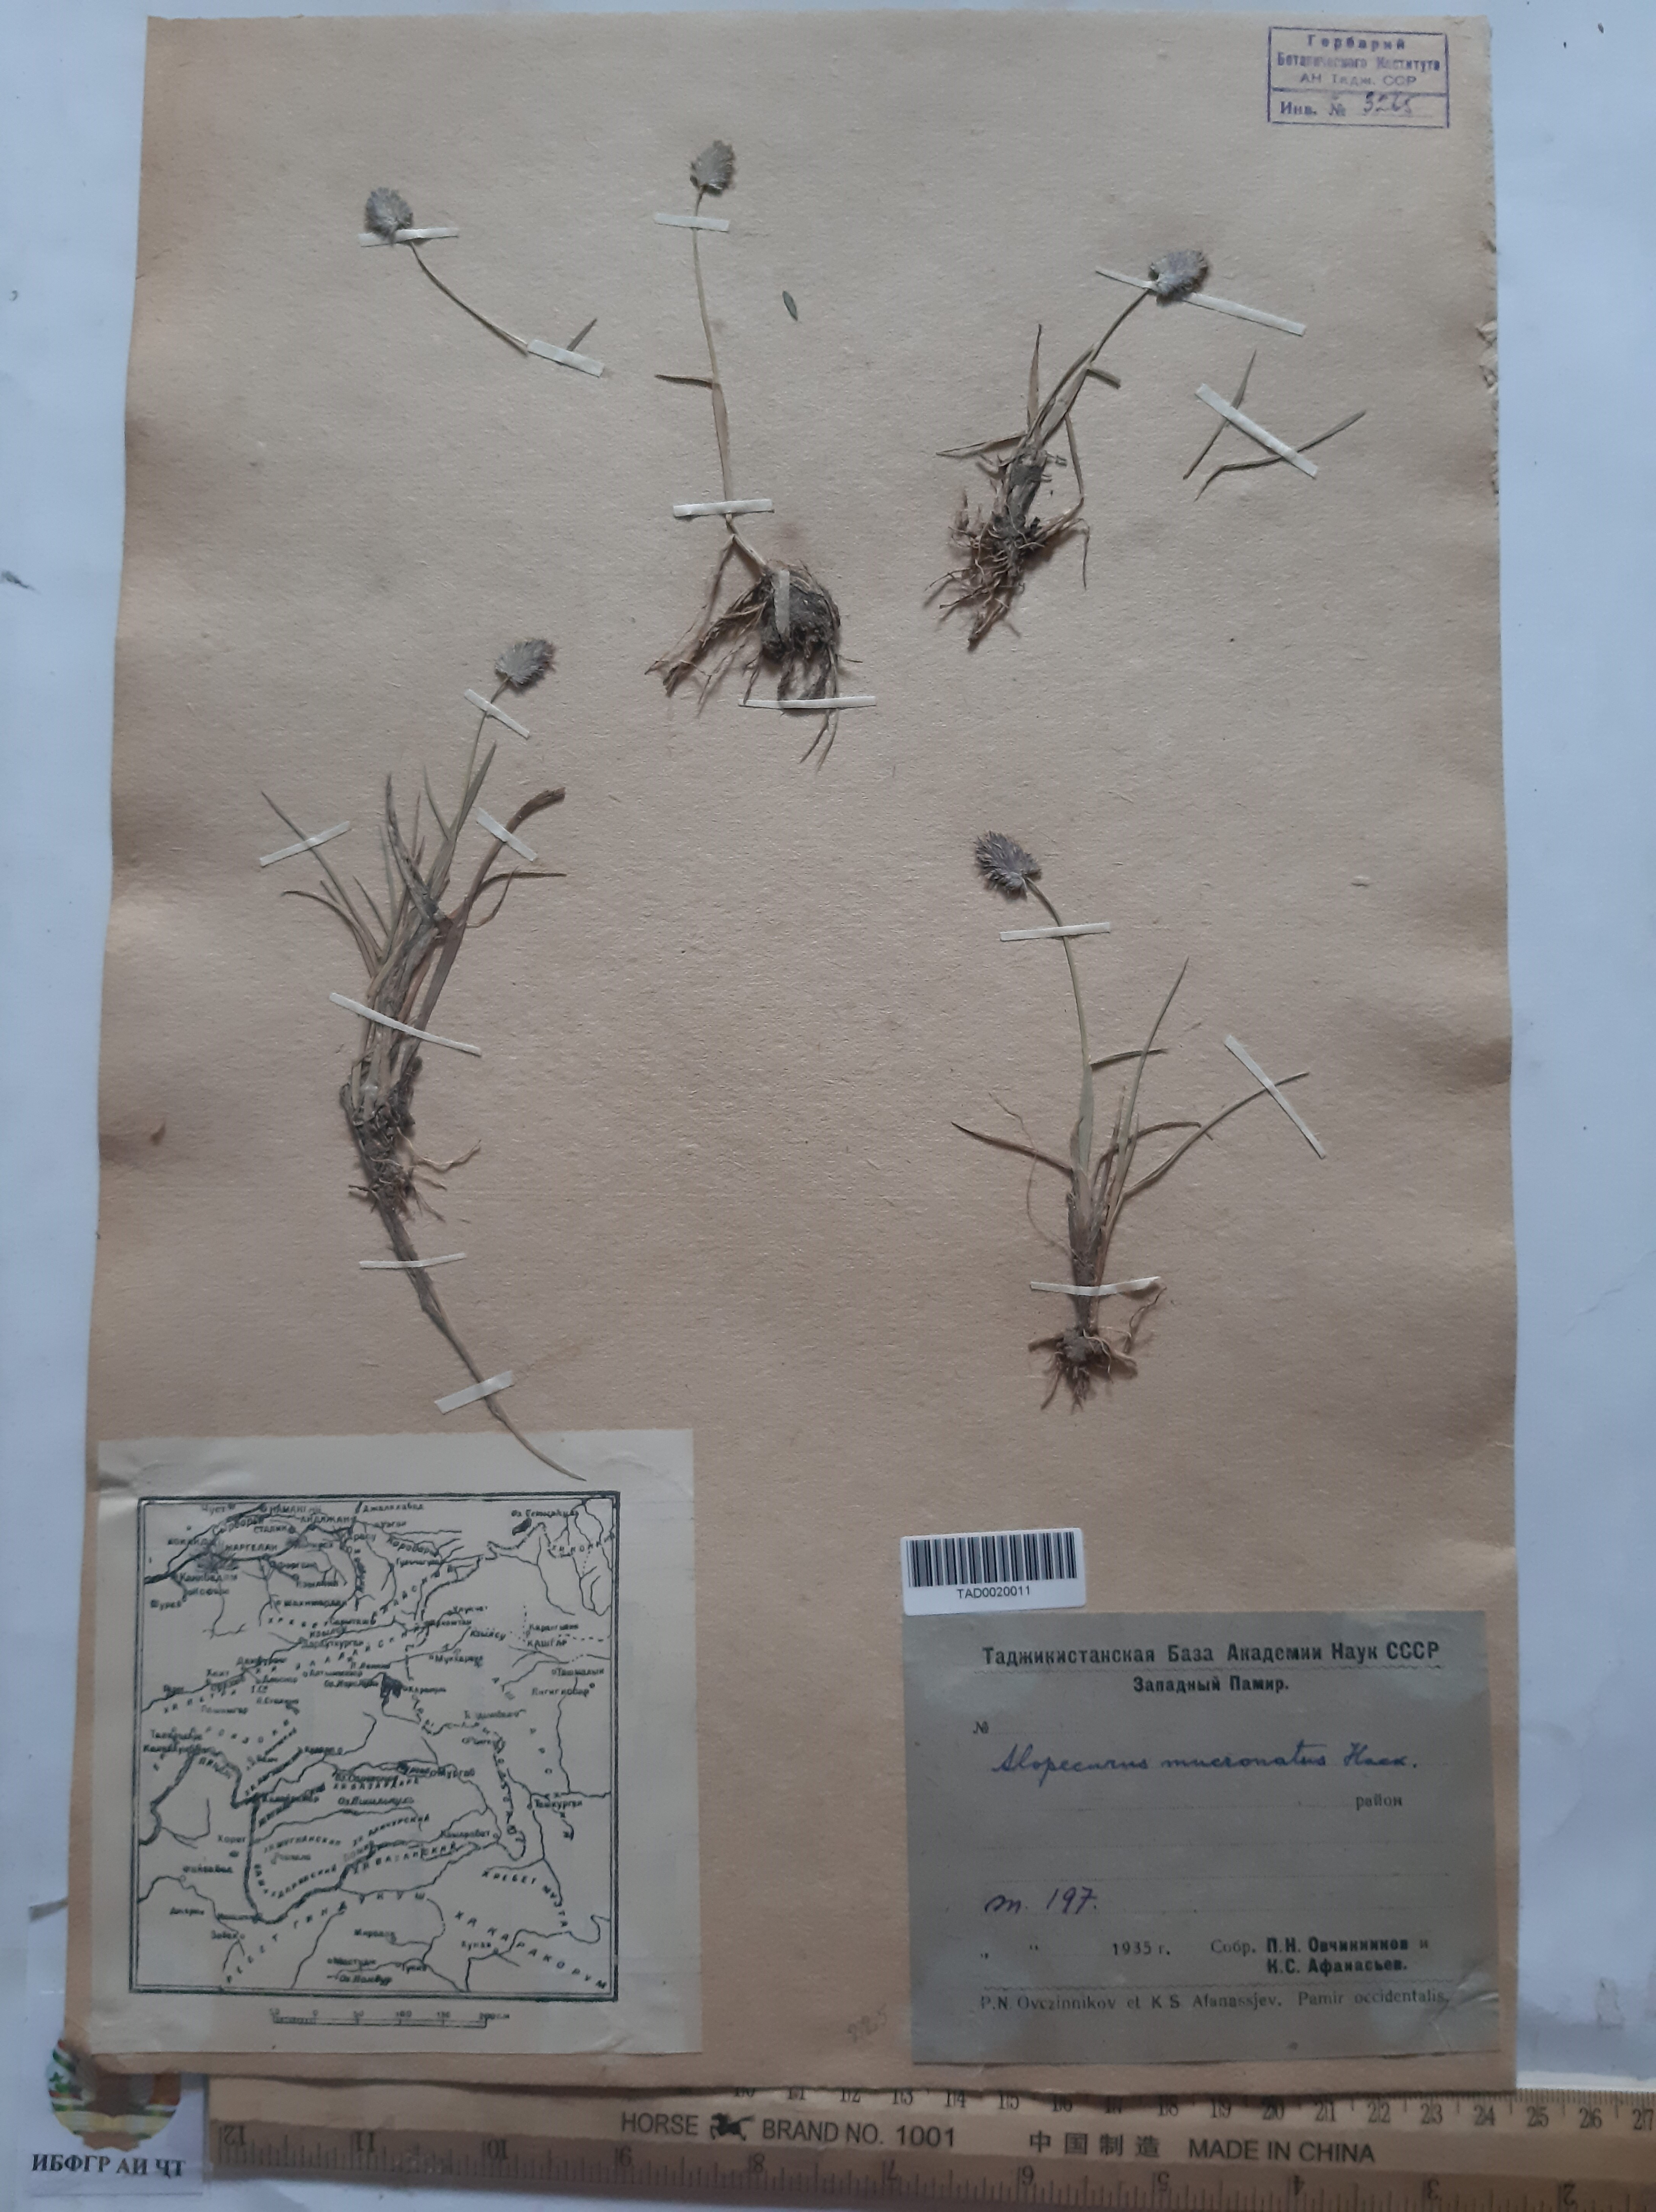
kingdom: Plantae
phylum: Tracheophyta
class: Liliopsida
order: Poales
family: Poaceae
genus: Alopecurus
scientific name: Alopecurus mucronatus
